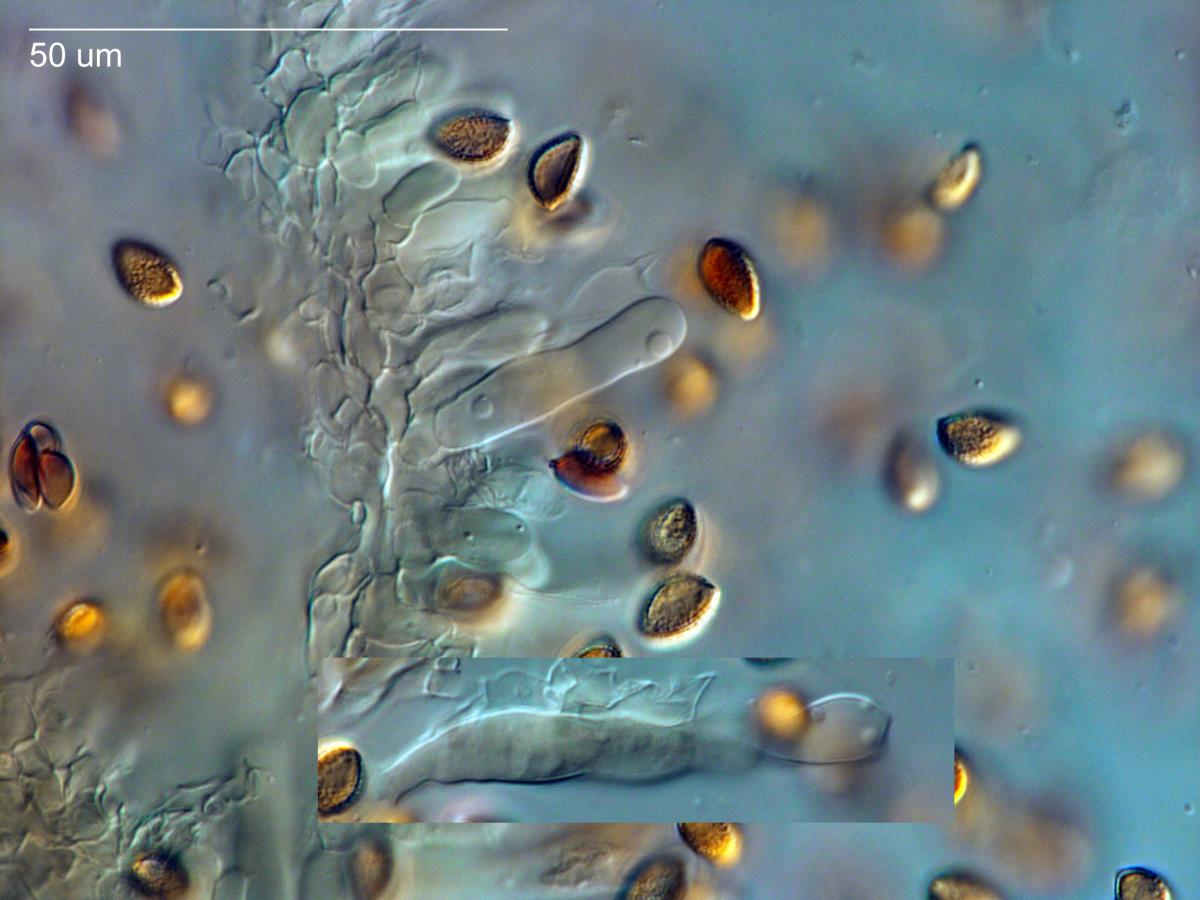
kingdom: Fungi
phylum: Basidiomycota
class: Agaricomycetes
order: Agaricales
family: Hymenogastraceae
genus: Hebeloma
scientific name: Hebeloma aminophilum
